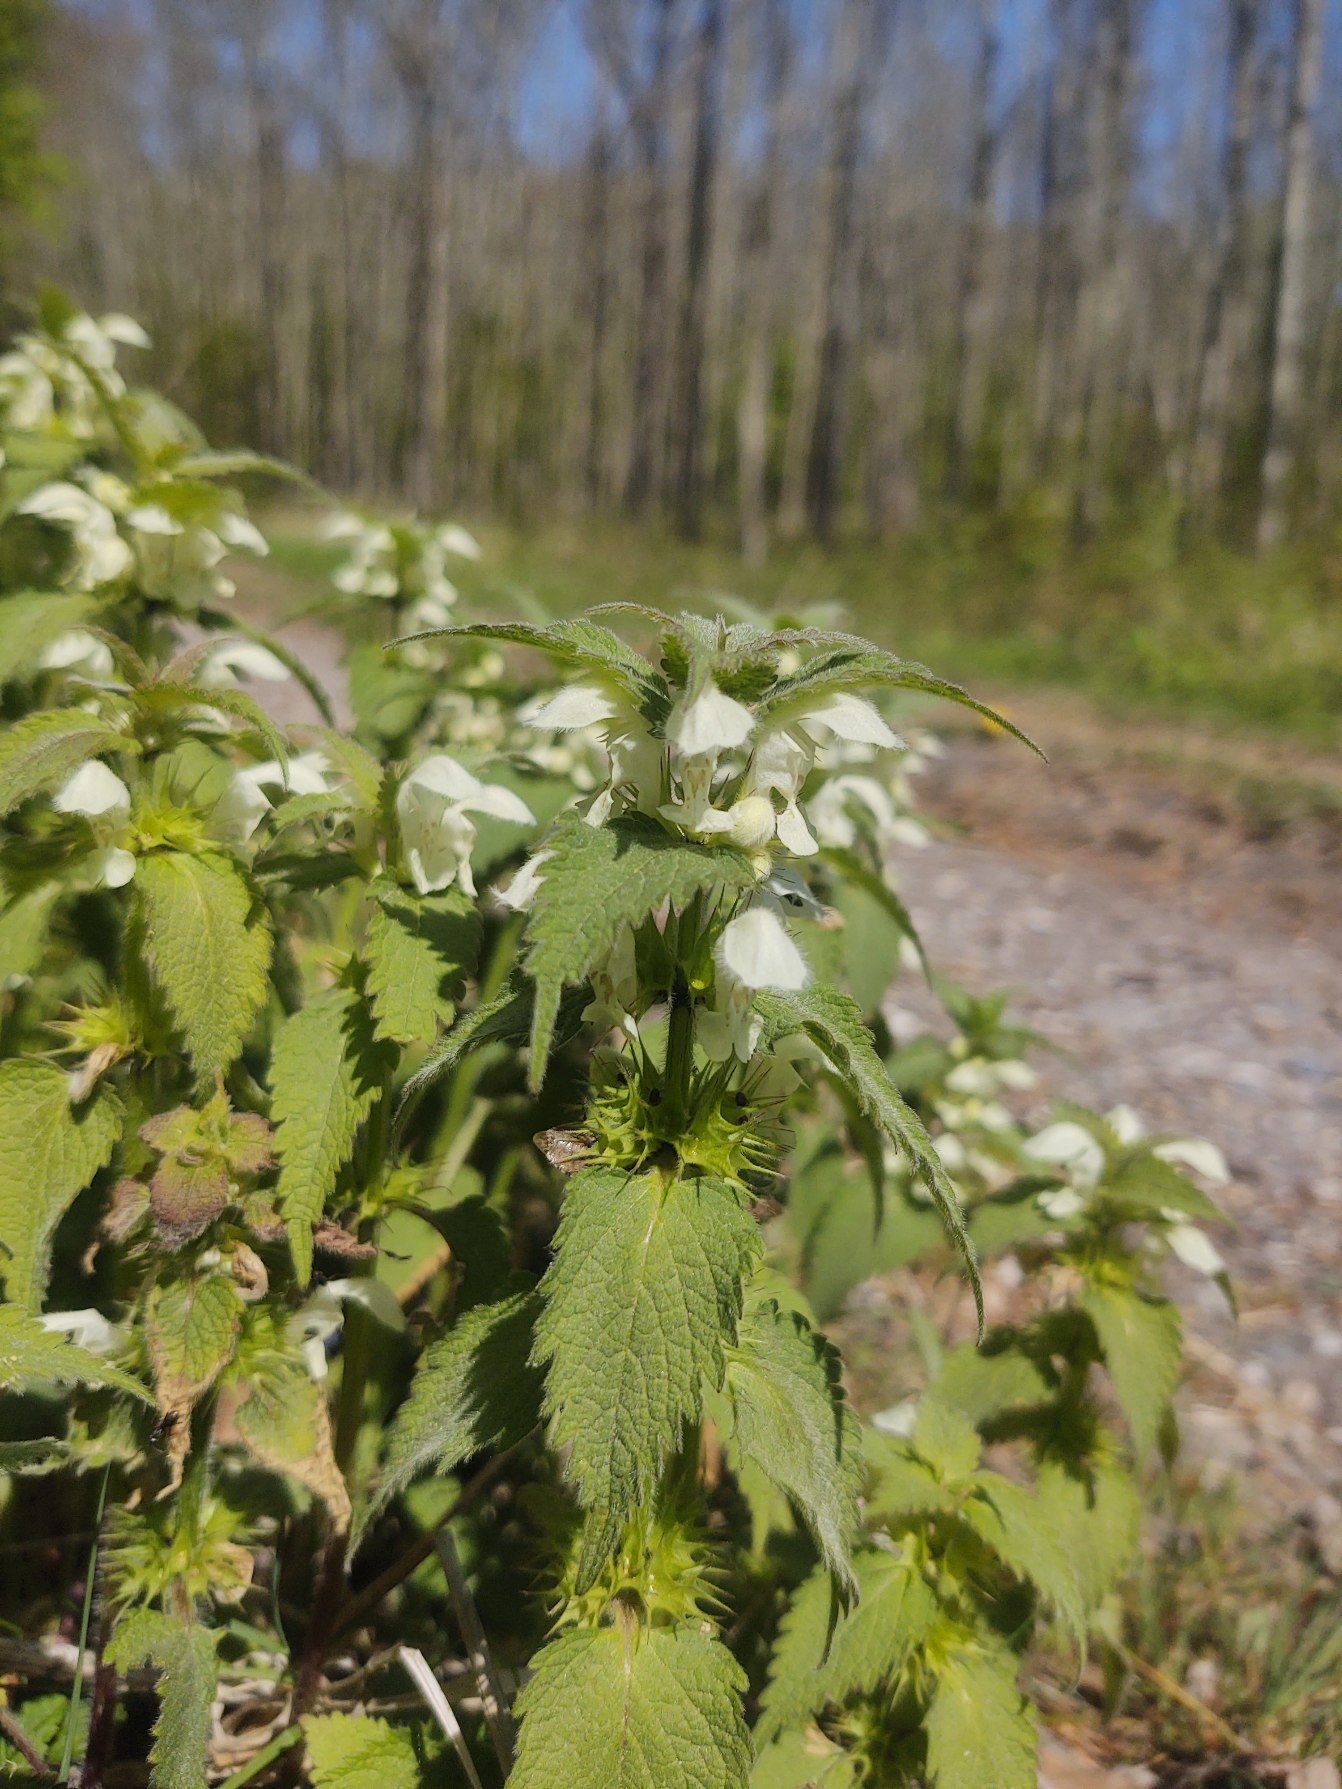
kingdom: Plantae
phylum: Tracheophyta
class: Magnoliopsida
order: Lamiales
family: Lamiaceae
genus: Lamium
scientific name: Lamium album
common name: Døvnælde
